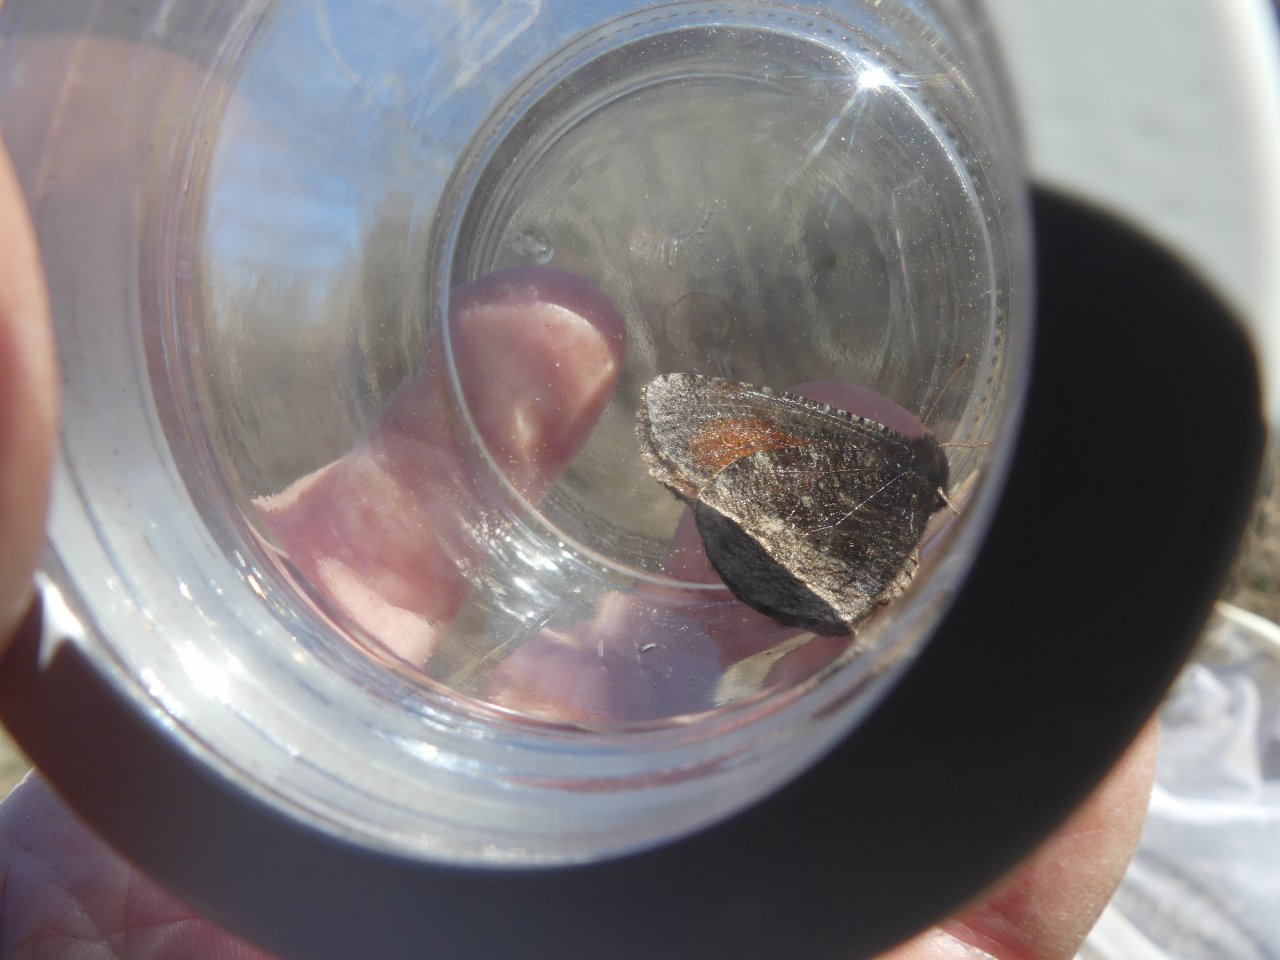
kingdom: Animalia
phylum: Arthropoda
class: Insecta
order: Lepidoptera
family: Nymphalidae
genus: Erebia
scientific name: Erebia discoidalis
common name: Red-disked Alpine
